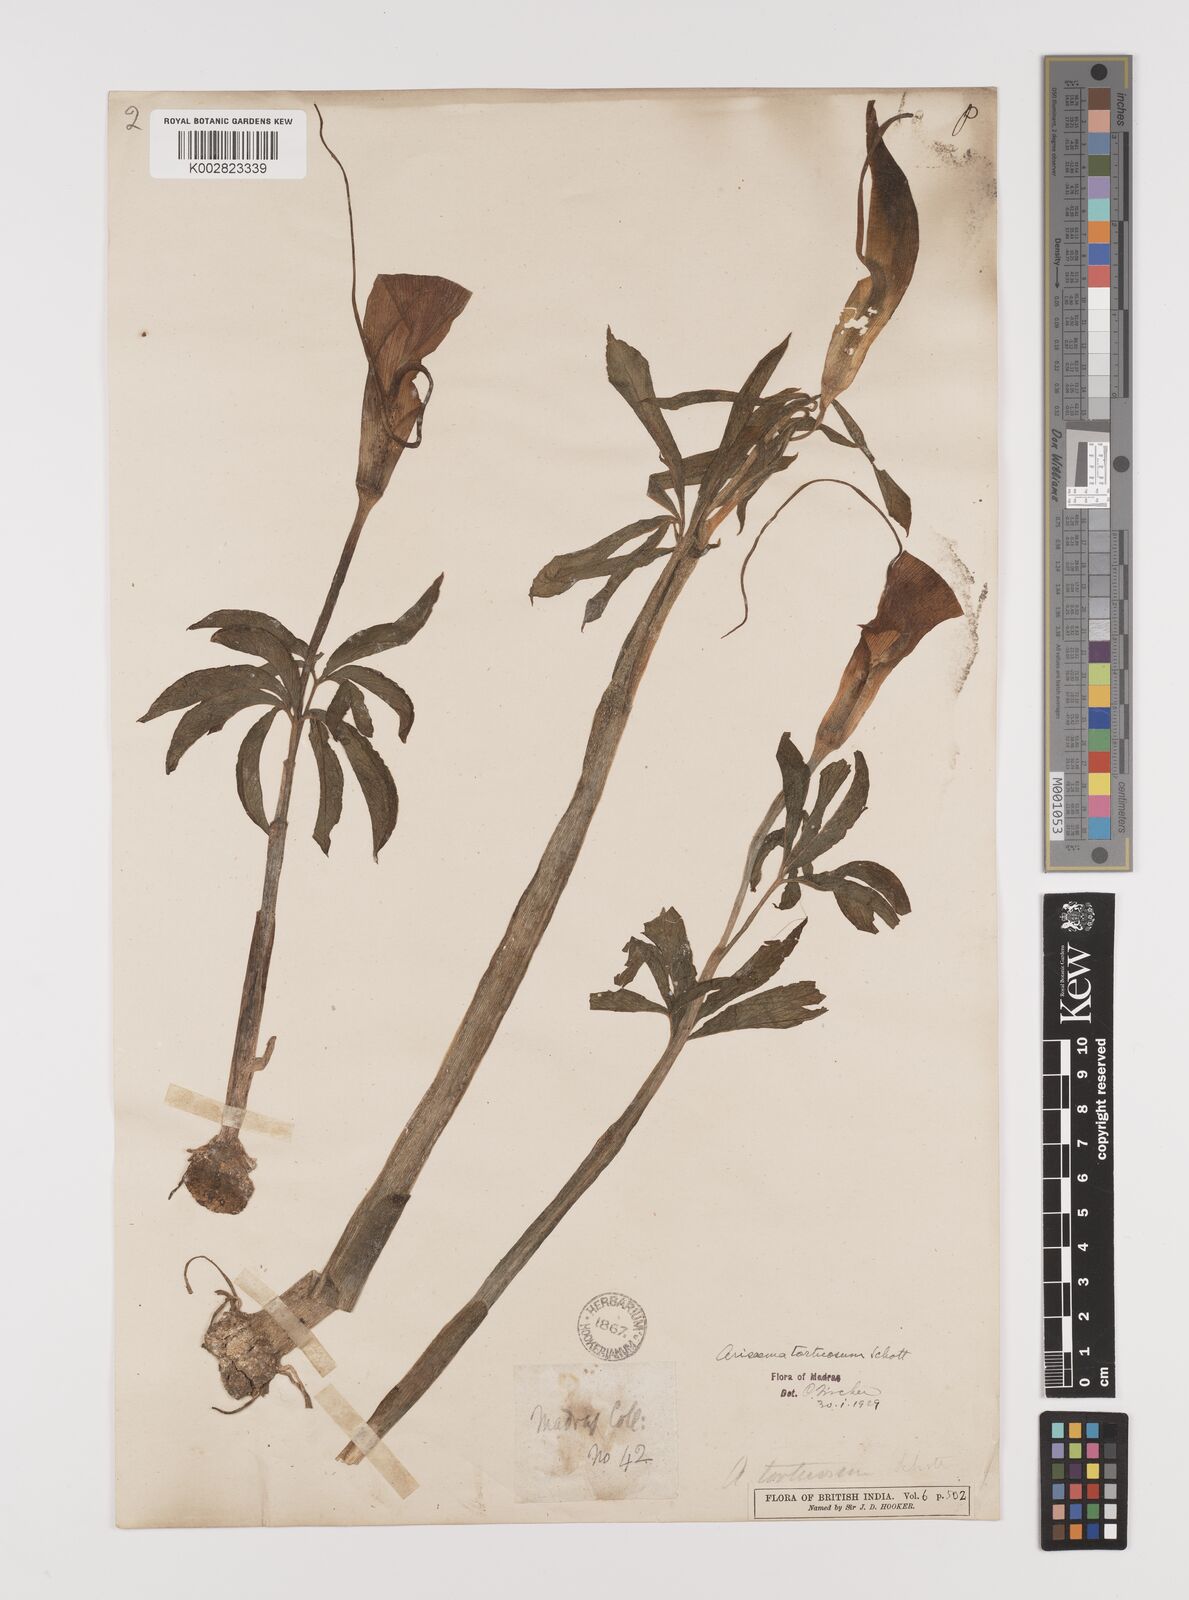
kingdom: Plantae
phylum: Tracheophyta
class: Liliopsida
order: Alismatales
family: Araceae
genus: Arisaema
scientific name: Arisaema tortuosum
